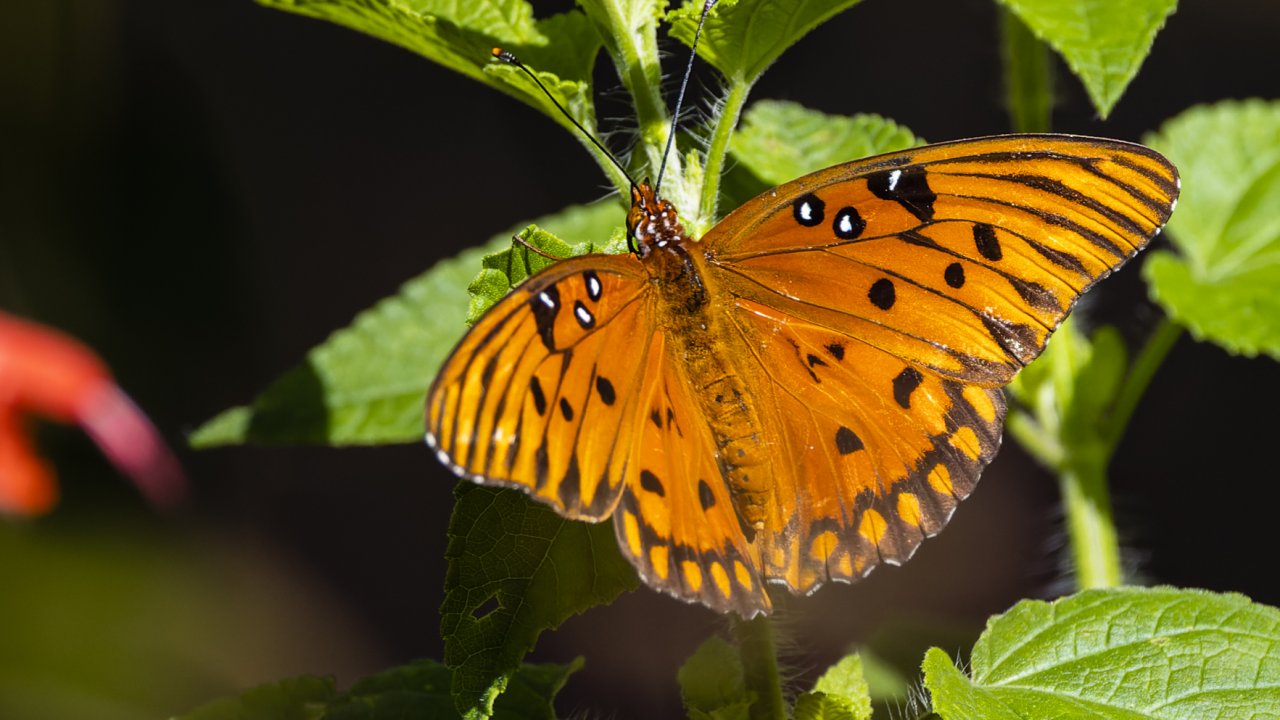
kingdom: Animalia
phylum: Arthropoda
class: Insecta
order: Lepidoptera
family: Nymphalidae
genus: Dione
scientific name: Dione vanillae
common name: Gulf Fritillary
